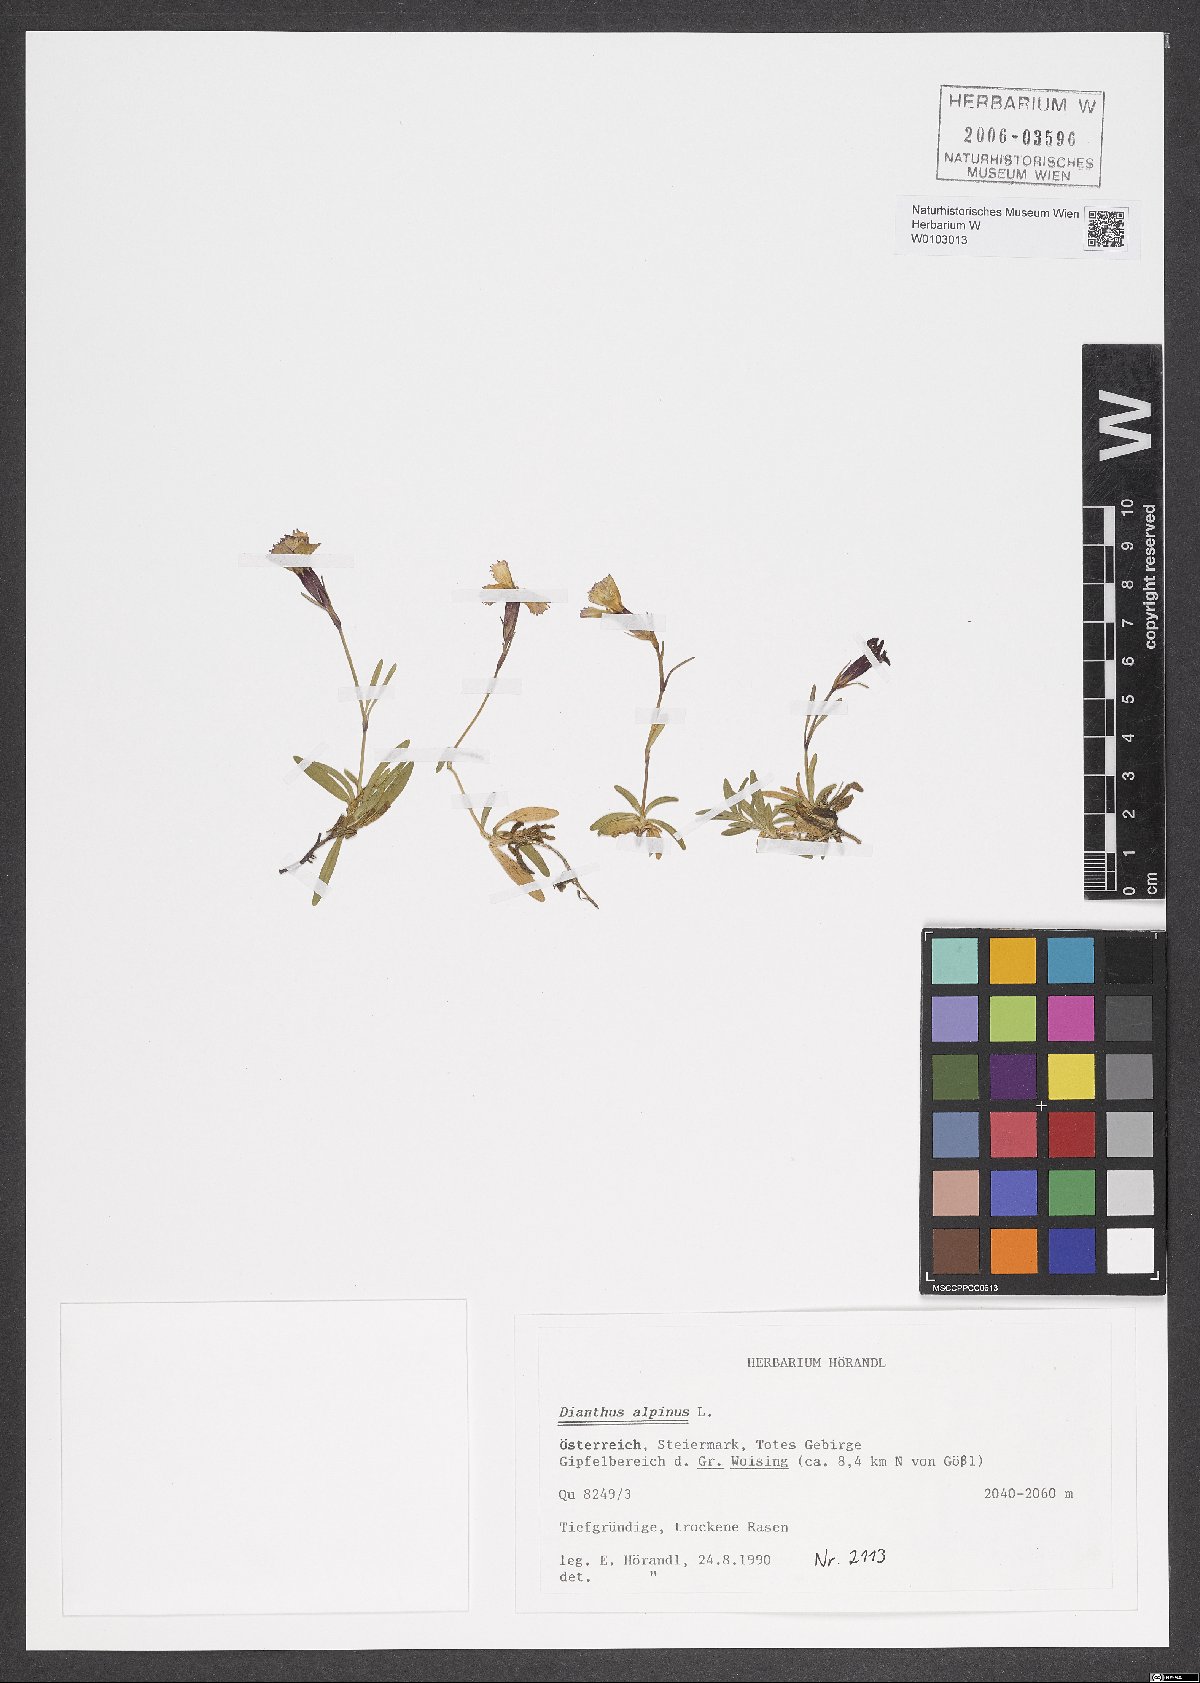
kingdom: Plantae
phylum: Tracheophyta
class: Magnoliopsida
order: Caryophyllales
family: Caryophyllaceae
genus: Dianthus
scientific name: Dianthus alpinus
